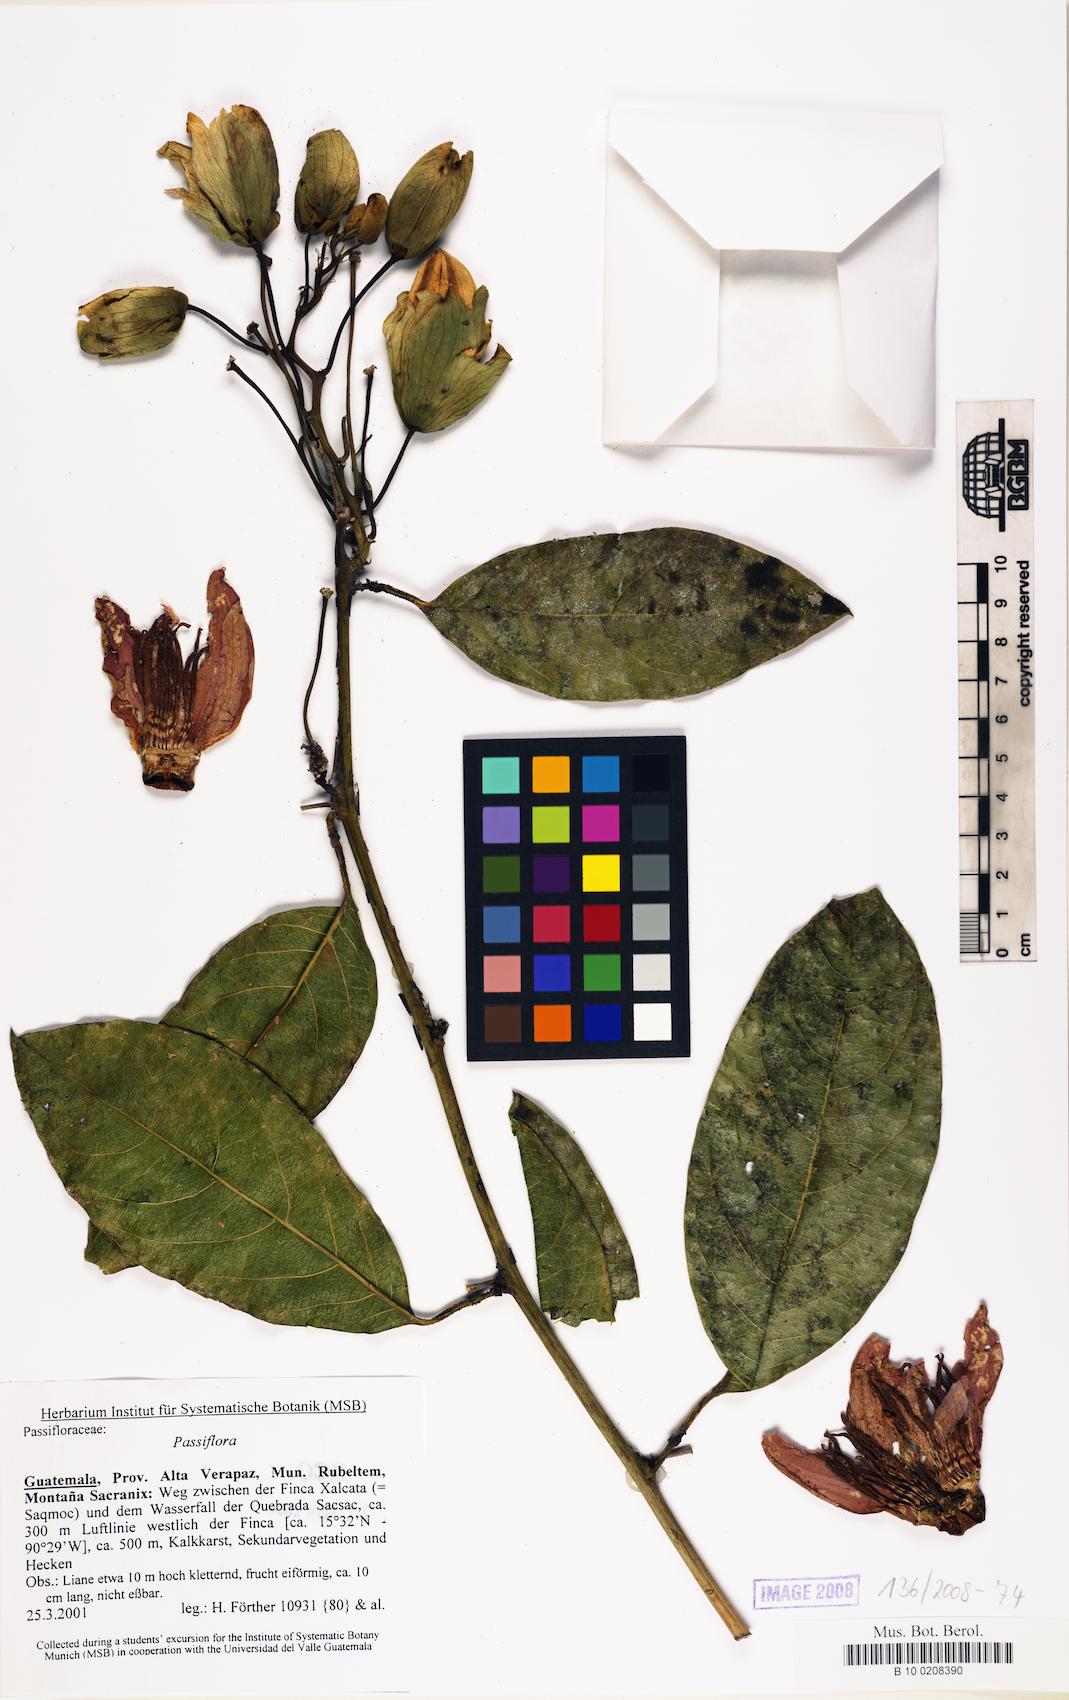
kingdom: Plantae
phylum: Tracheophyta
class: Magnoliopsida
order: Malpighiales
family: Passifloraceae
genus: Passiflora
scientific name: Passiflora
